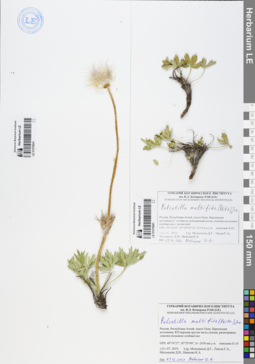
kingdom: Plantae
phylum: Tracheophyta
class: Magnoliopsida
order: Ranunculales
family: Ranunculaceae
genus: Pulsatilla
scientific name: Pulsatilla patens
